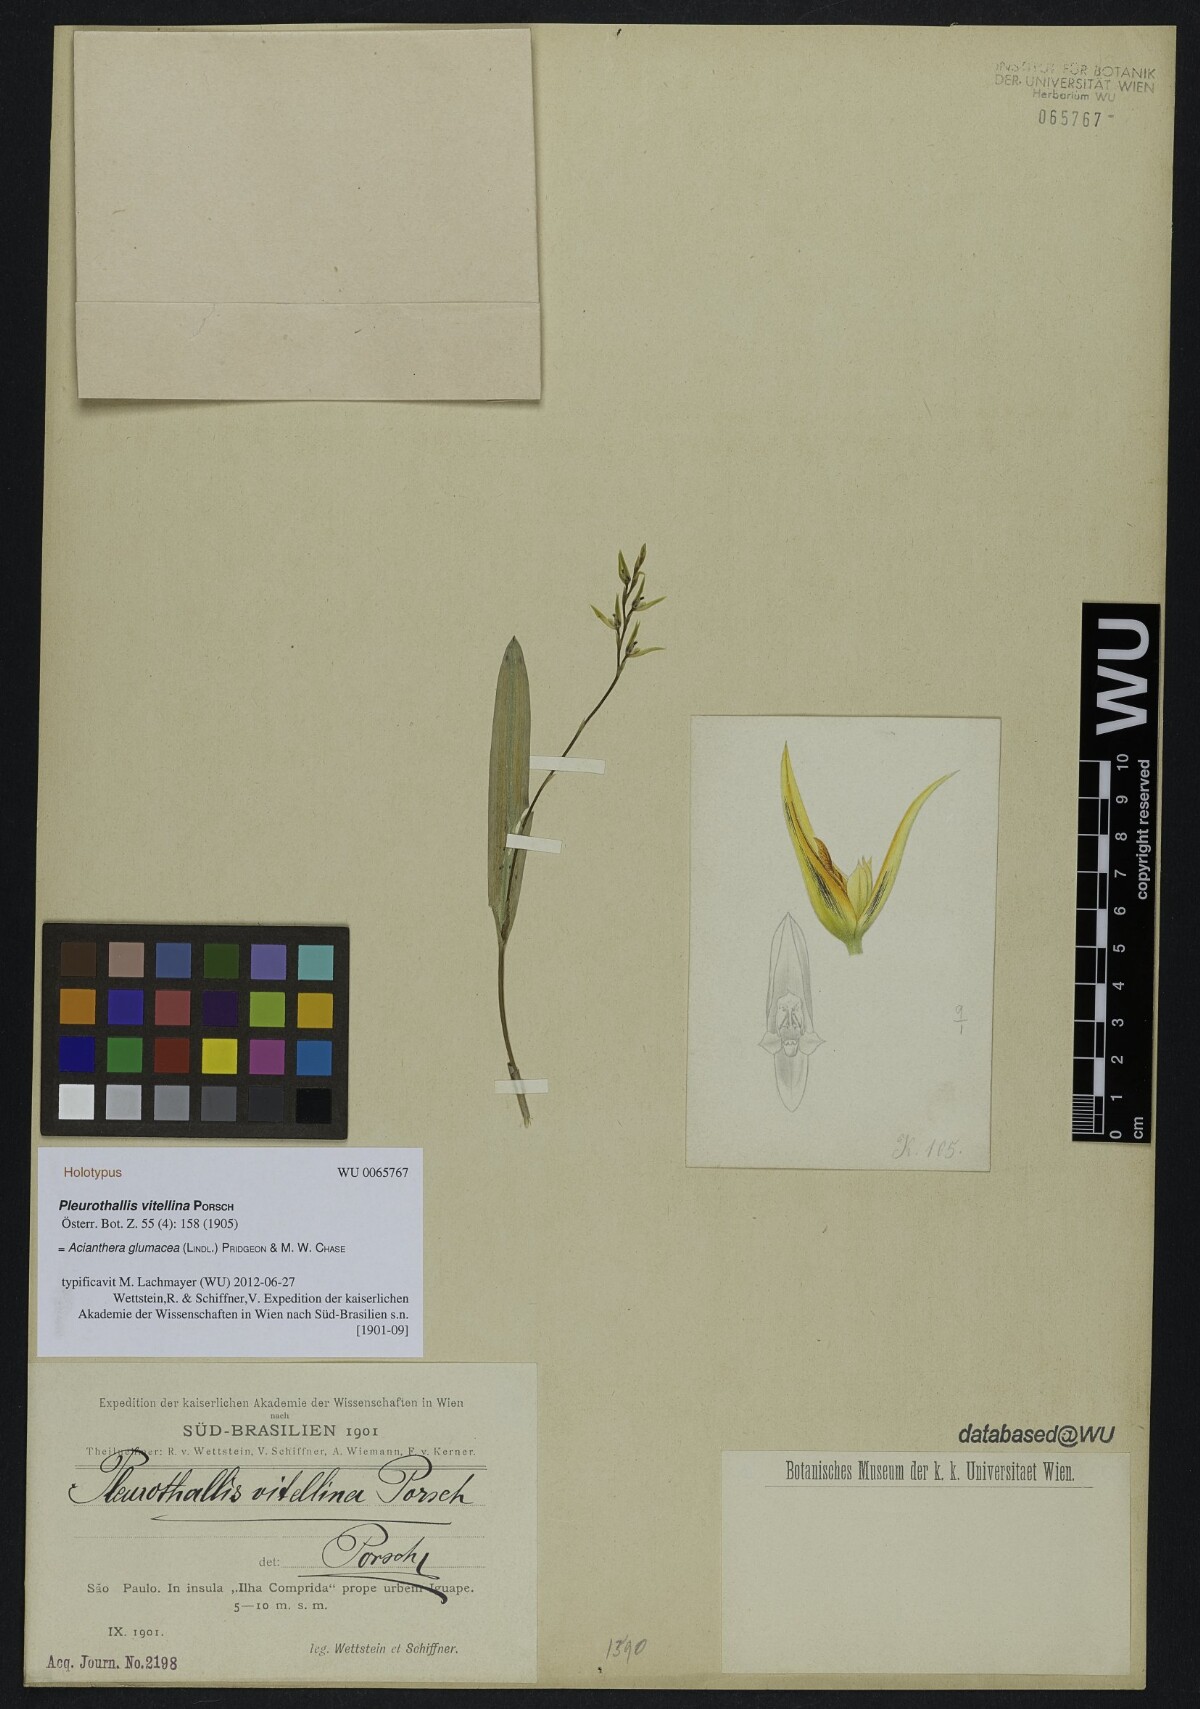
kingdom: Plantae
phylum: Tracheophyta
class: Liliopsida
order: Asparagales
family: Orchidaceae
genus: Acianthera
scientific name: Acianthera glumacea
